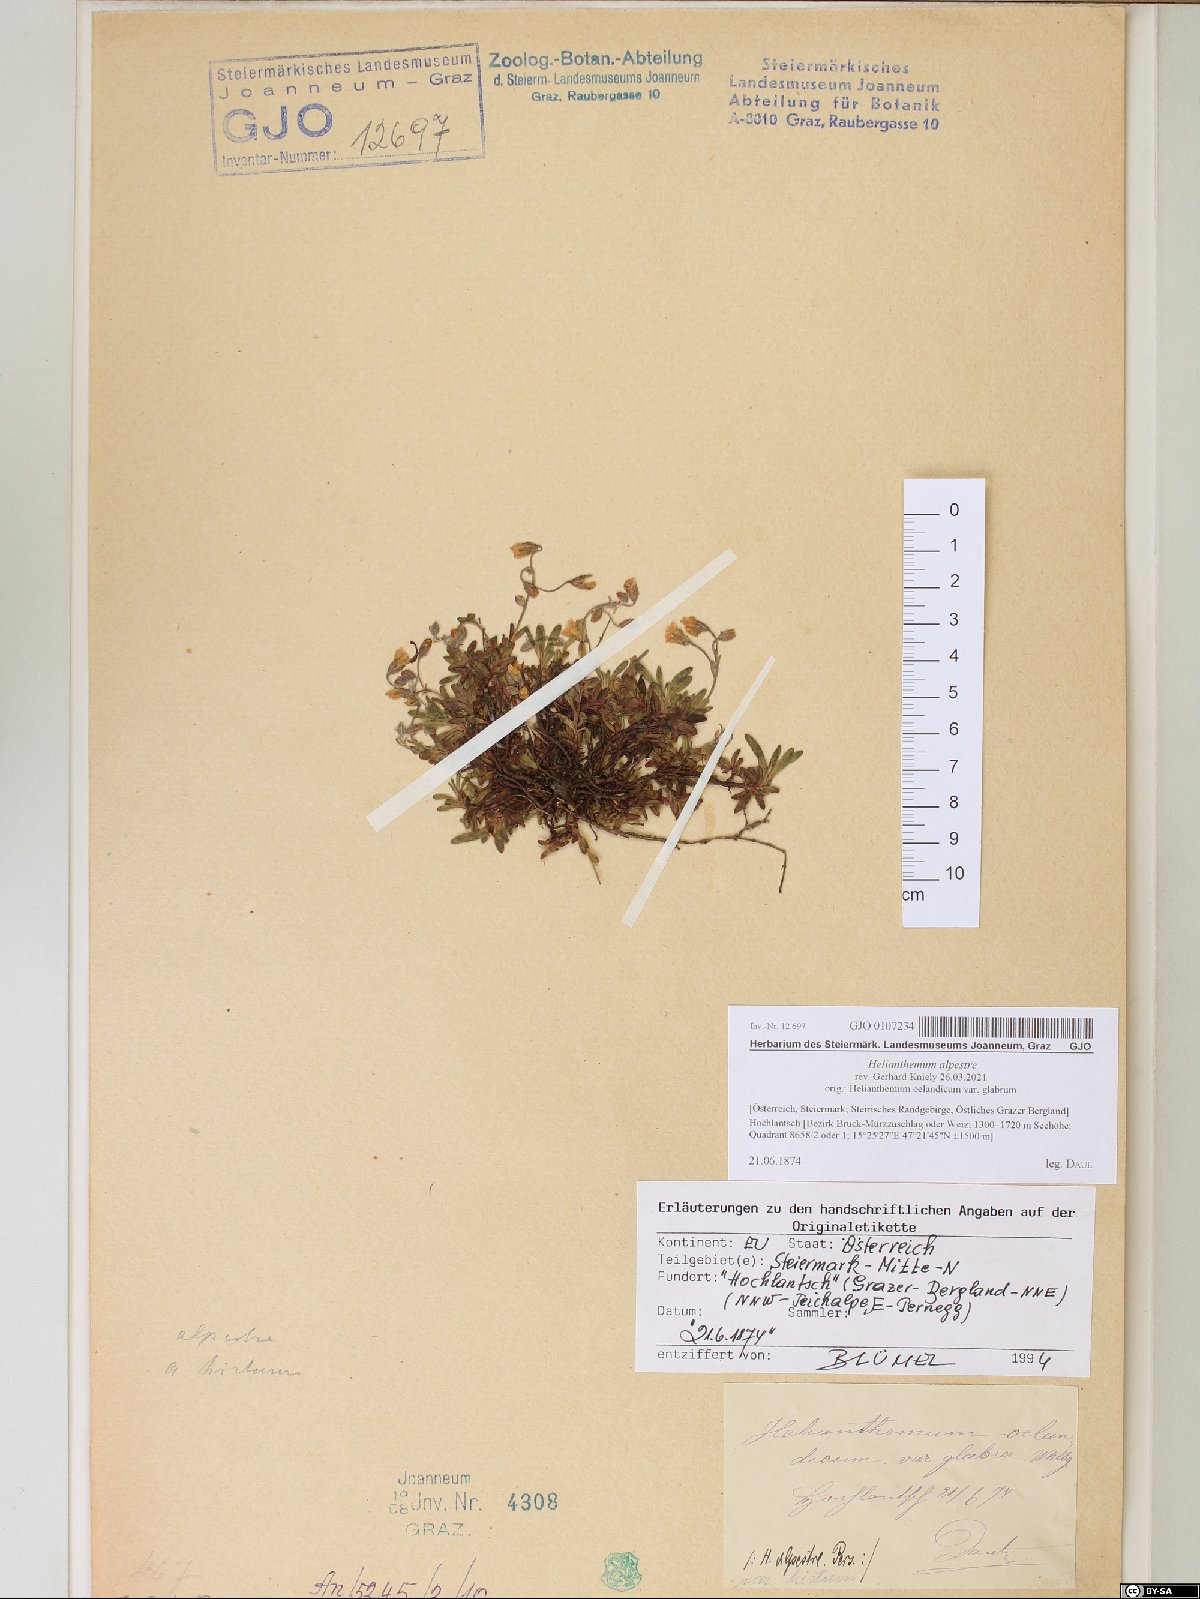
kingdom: Plantae
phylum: Tracheophyta
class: Magnoliopsida
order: Malvales
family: Cistaceae
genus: Helianthemum
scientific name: Helianthemum alpestre
